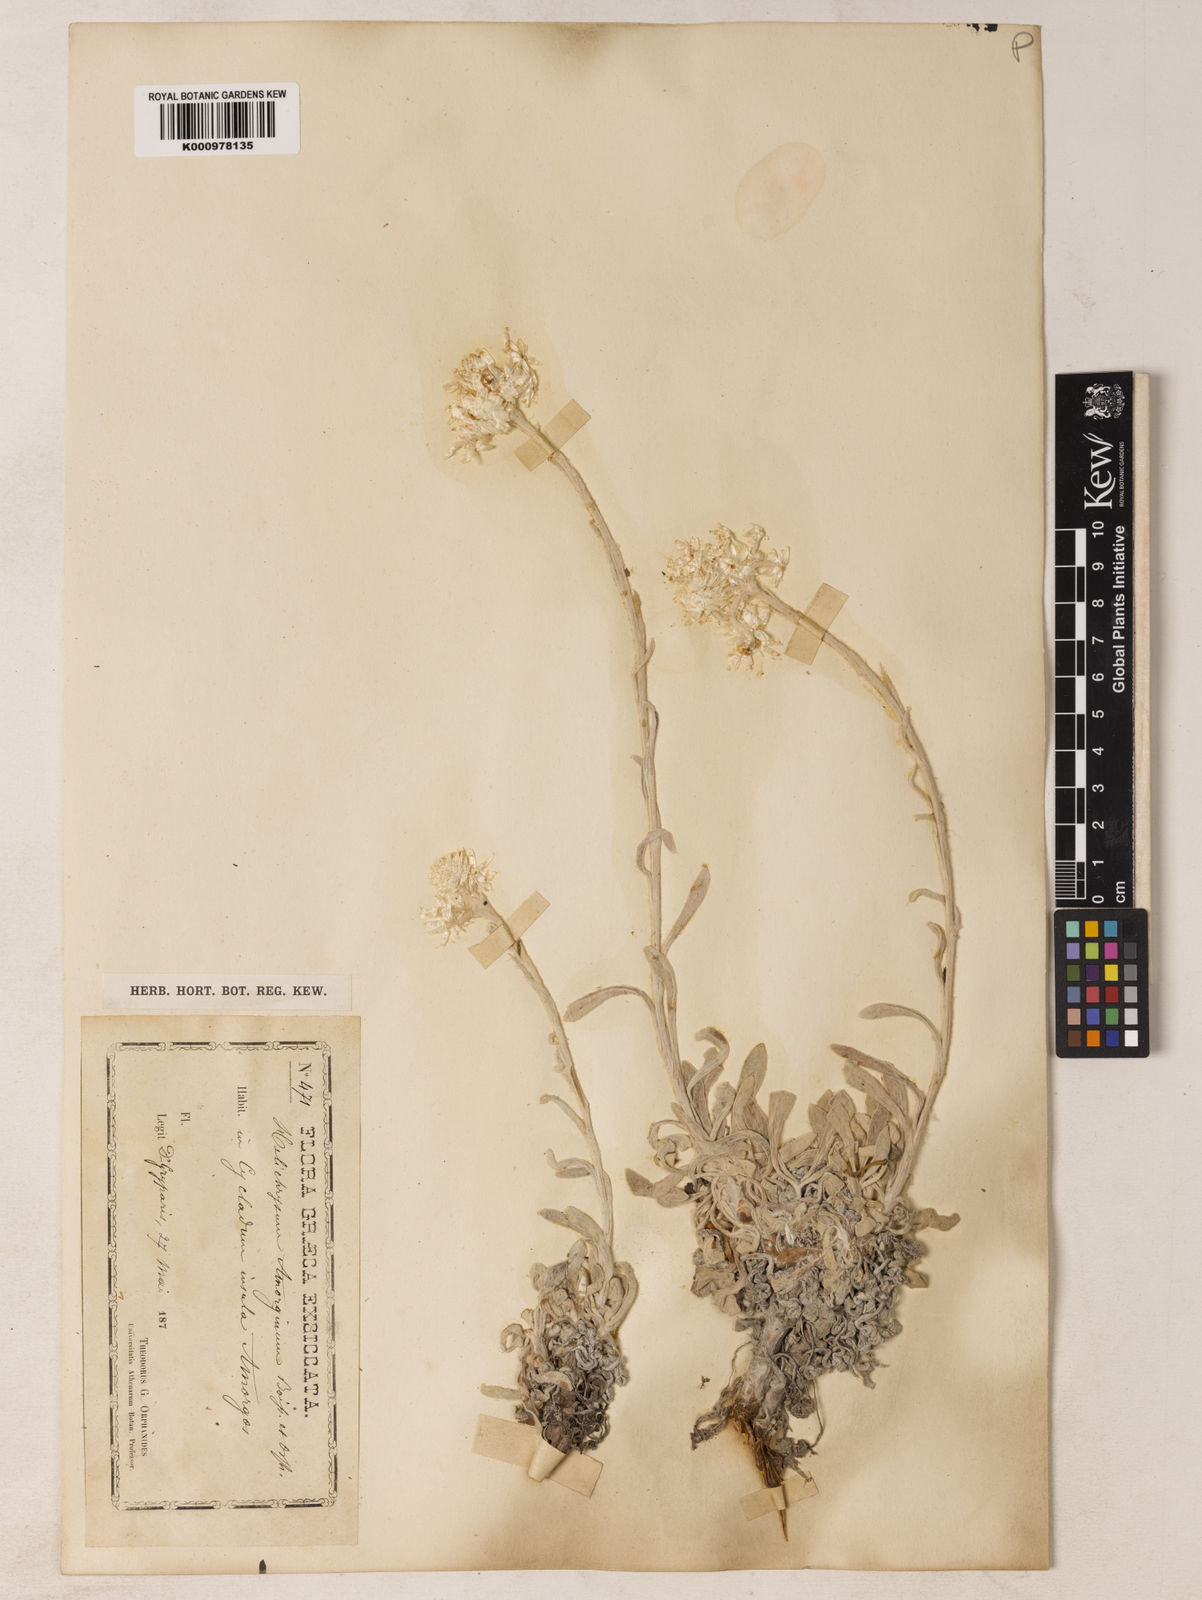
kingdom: Plantae
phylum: Tracheophyta
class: Magnoliopsida
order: Asterales
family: Asteraceae
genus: Helichrysum
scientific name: Helichrysum amorginum
